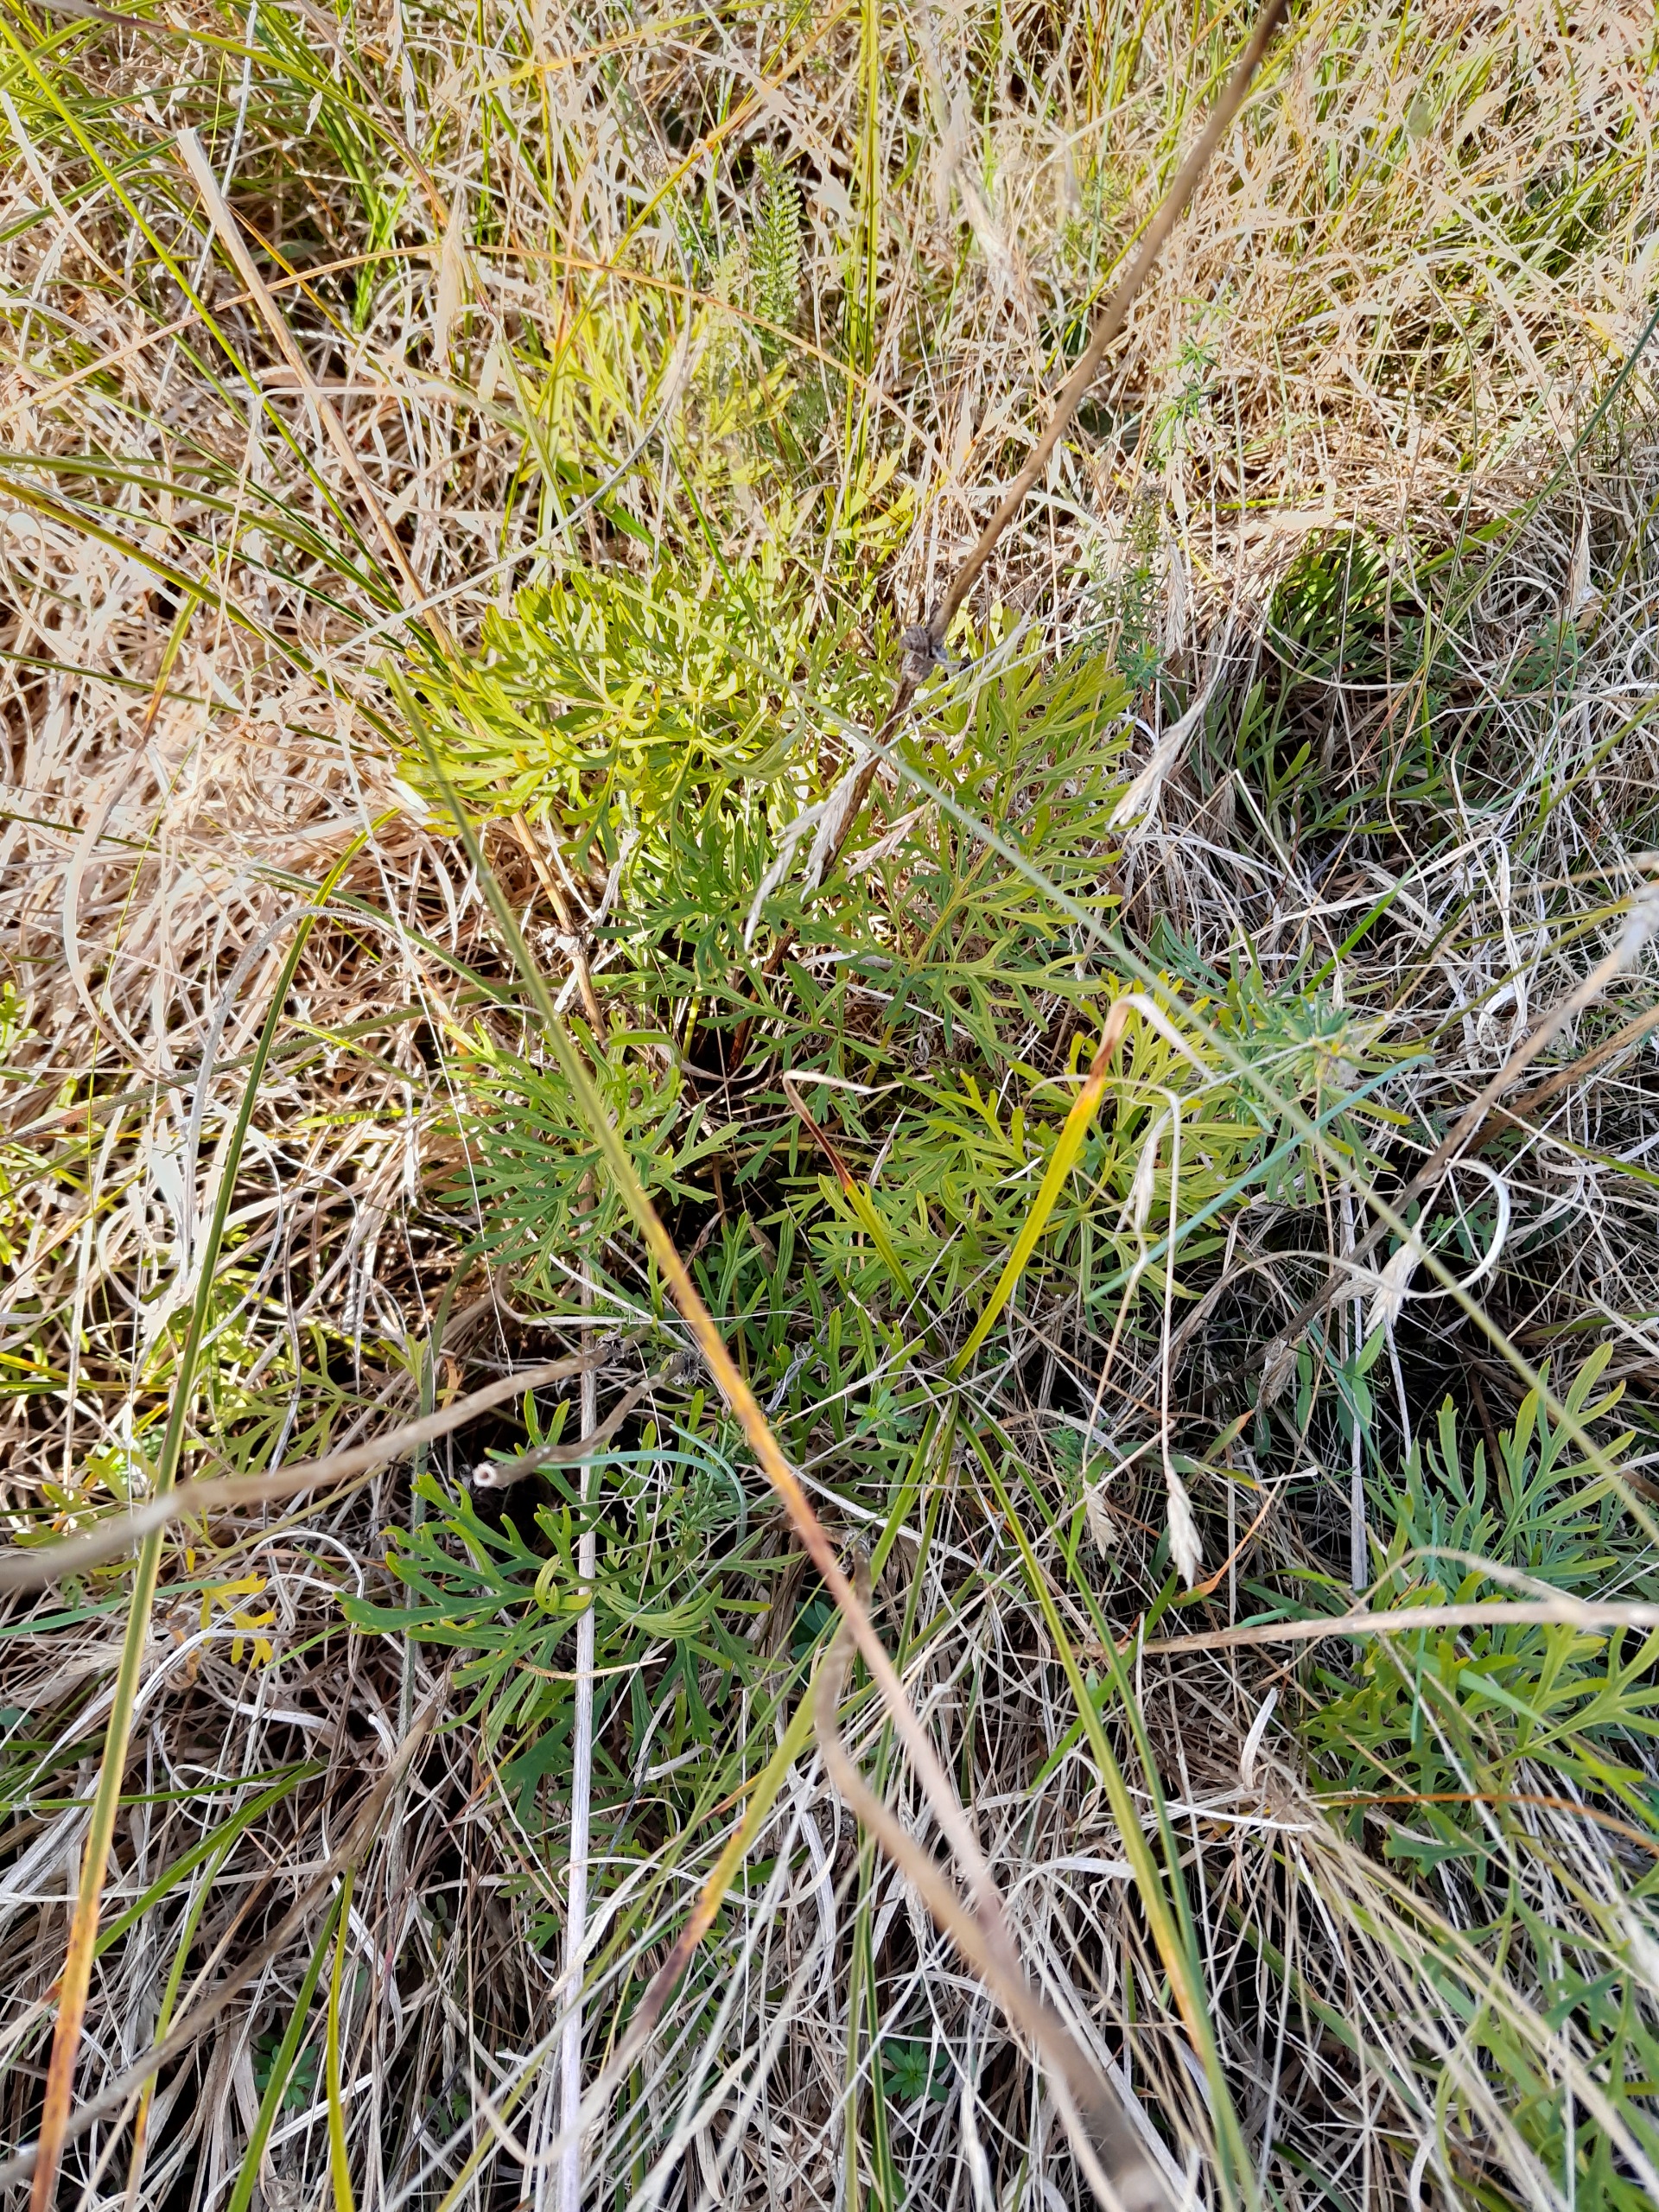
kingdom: Plantae
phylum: Tracheophyta
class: Magnoliopsida
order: Ranunculales
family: Ranunculaceae
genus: Pulsatilla
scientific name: Pulsatilla pratensis
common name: Nikkende kobjælde
